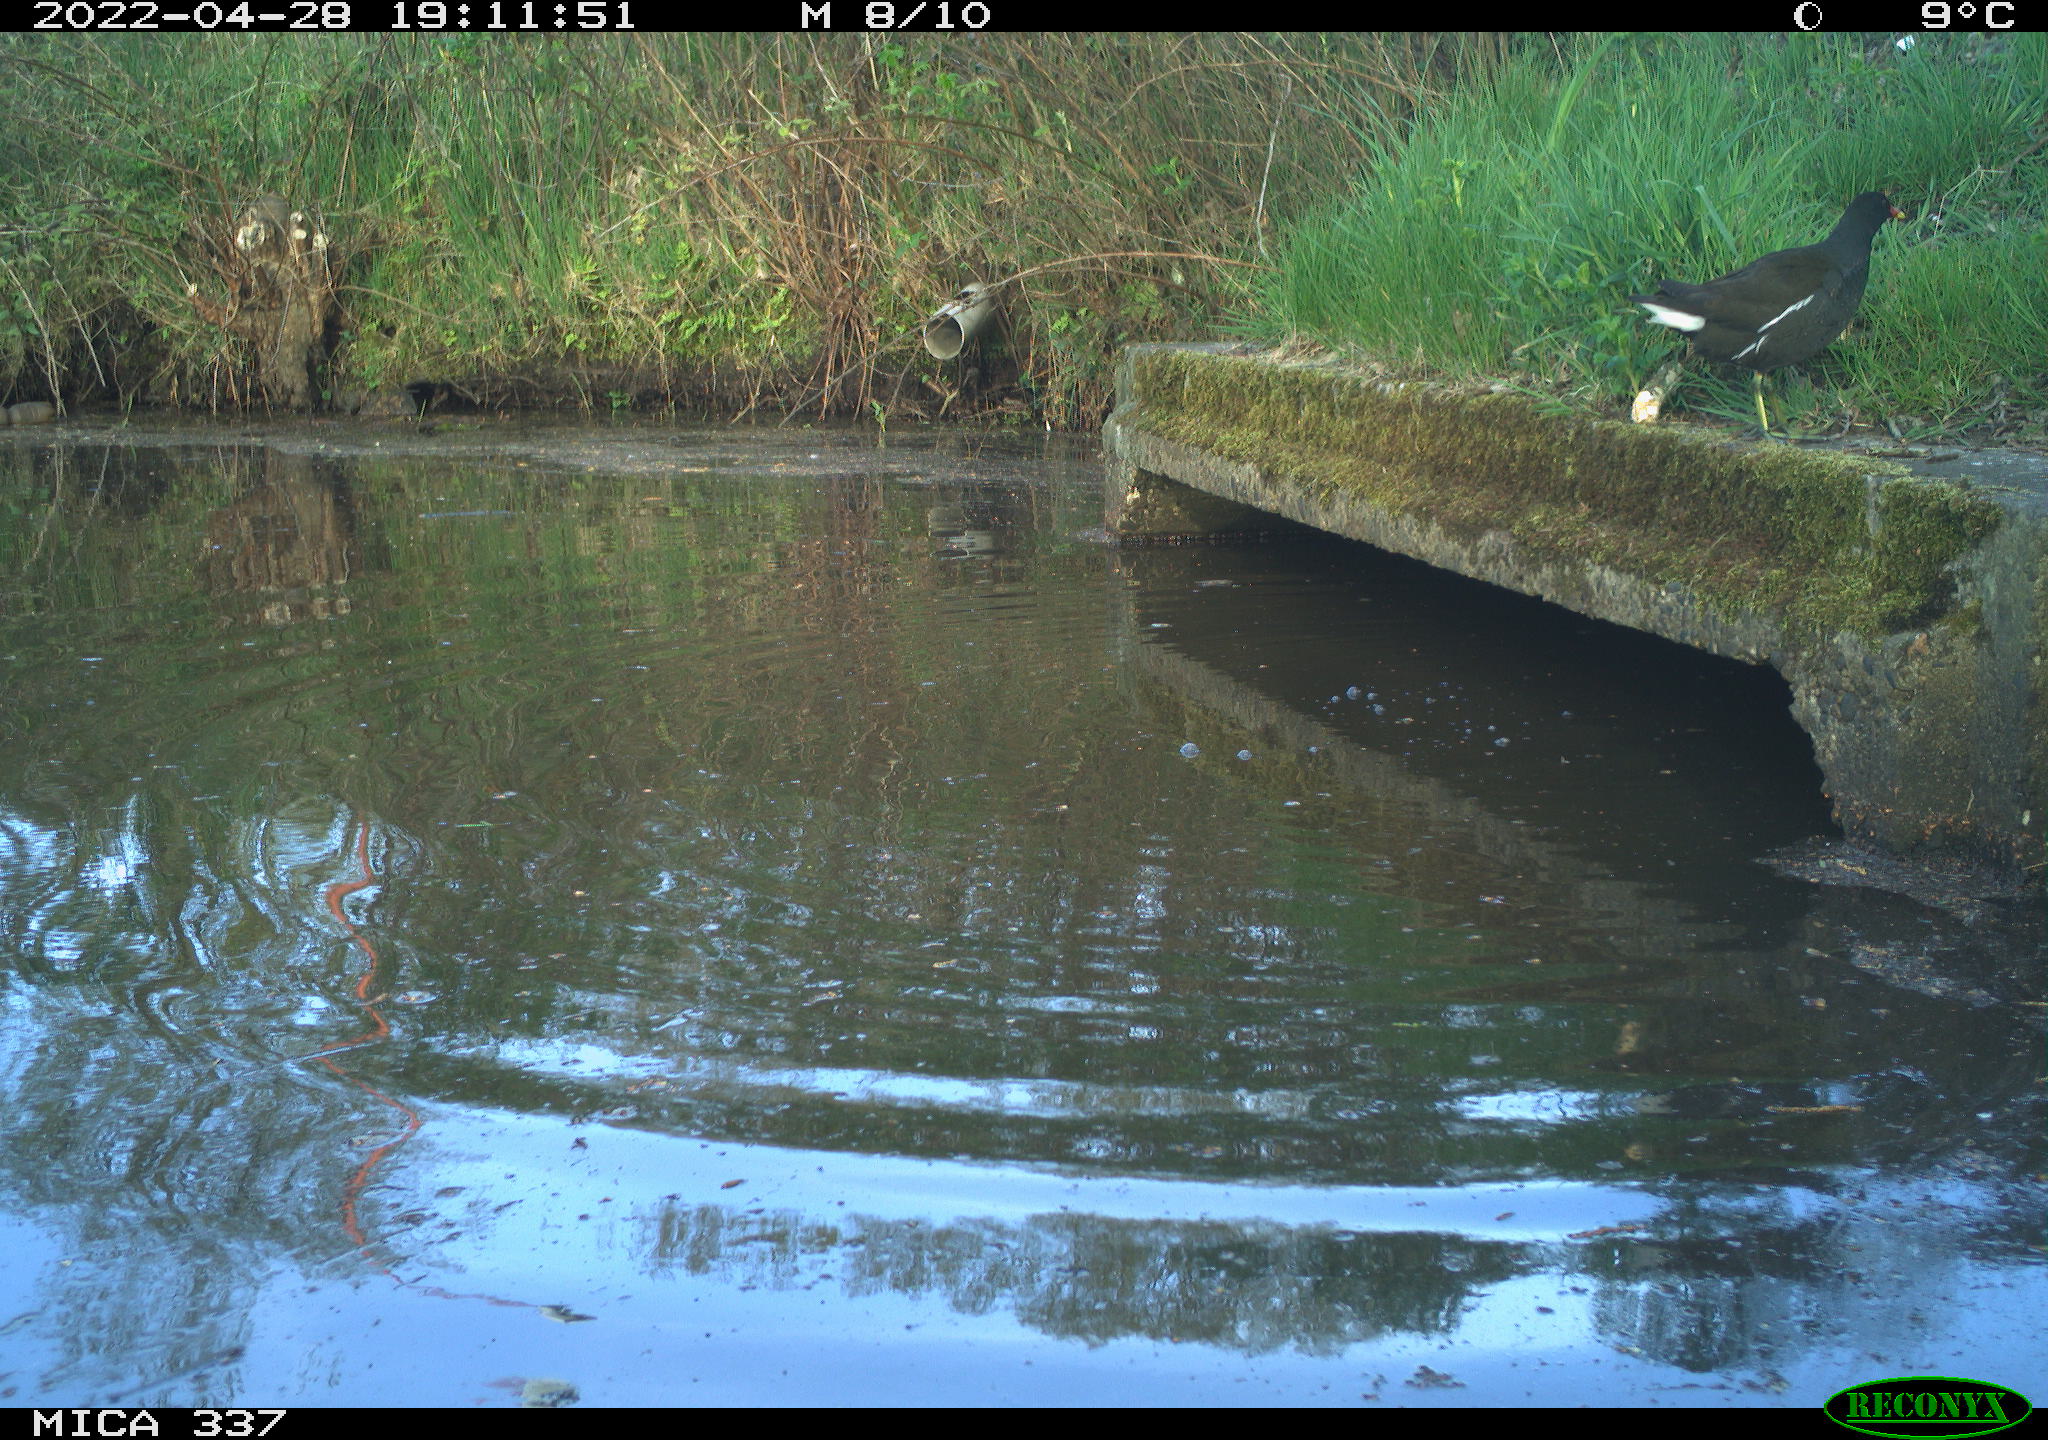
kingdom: Animalia
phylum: Chordata
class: Aves
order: Gruiformes
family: Rallidae
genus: Gallinula
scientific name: Gallinula chloropus
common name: Common moorhen
